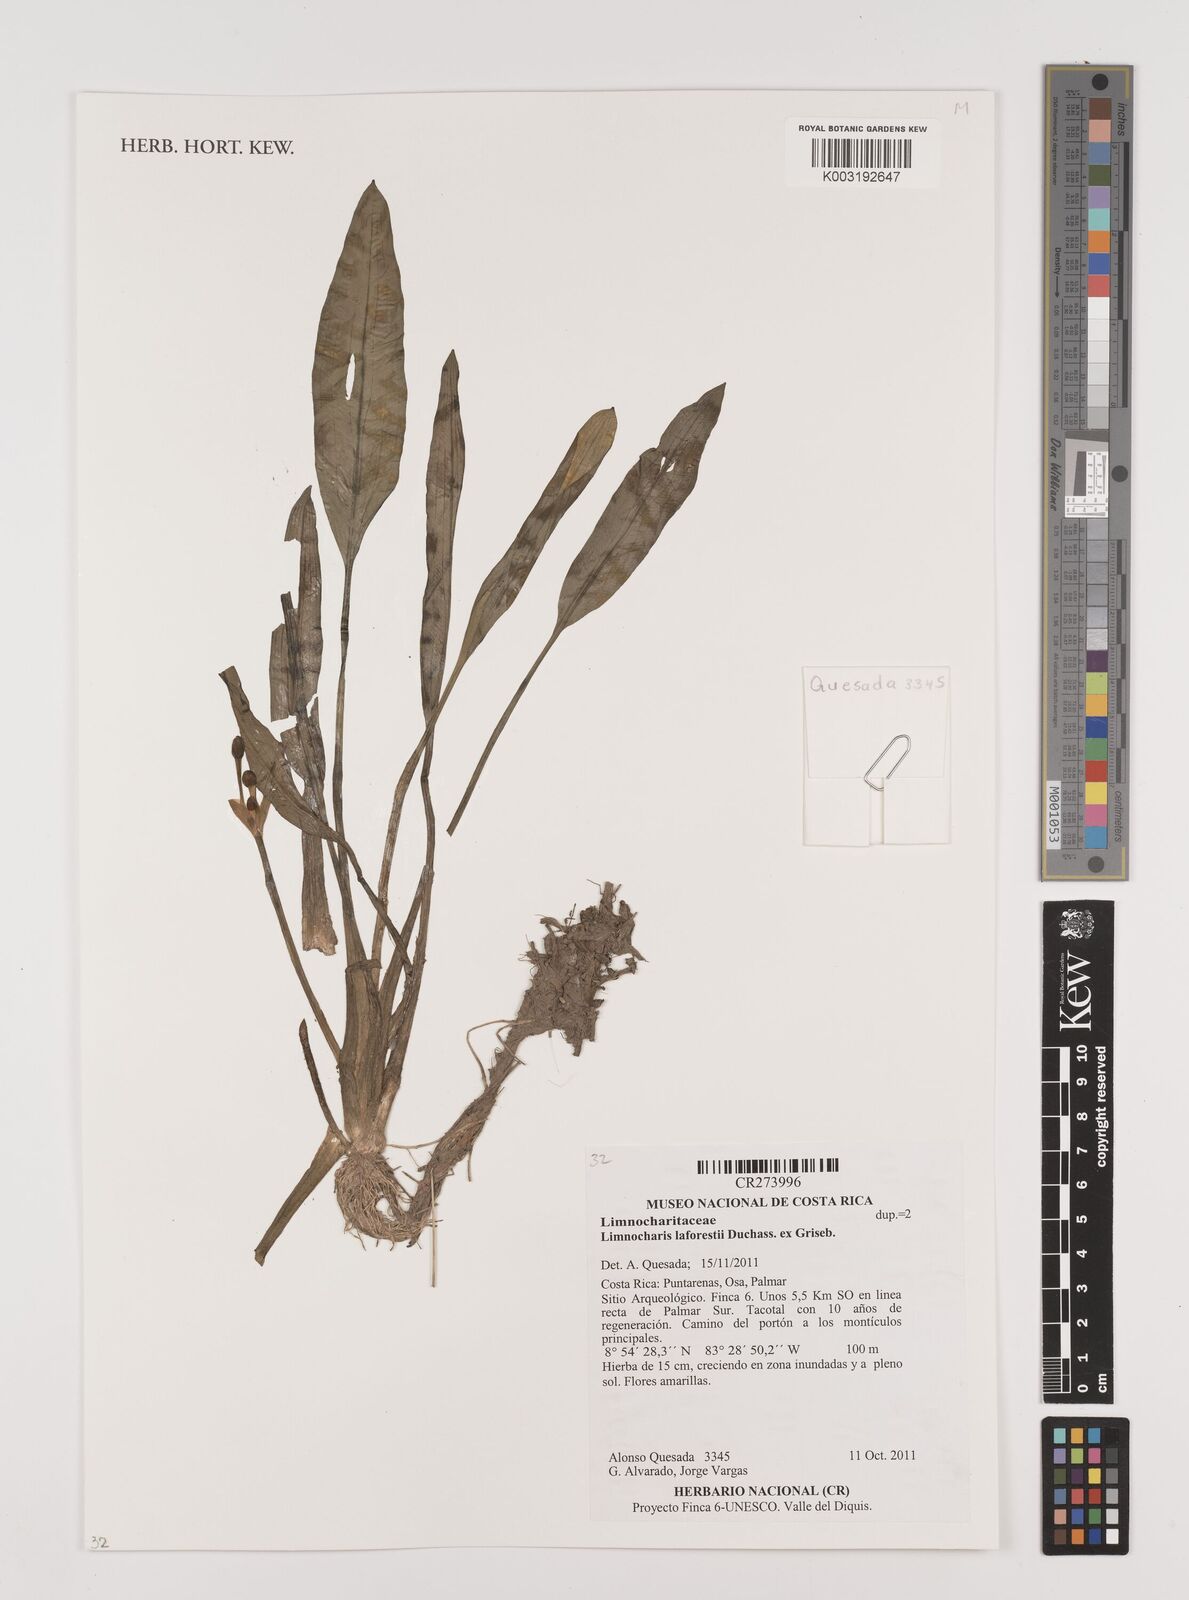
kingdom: Plantae
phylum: Tracheophyta
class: Liliopsida
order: Alismatales
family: Alismataceae
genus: Limnocharis
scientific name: Limnocharis laforestii
